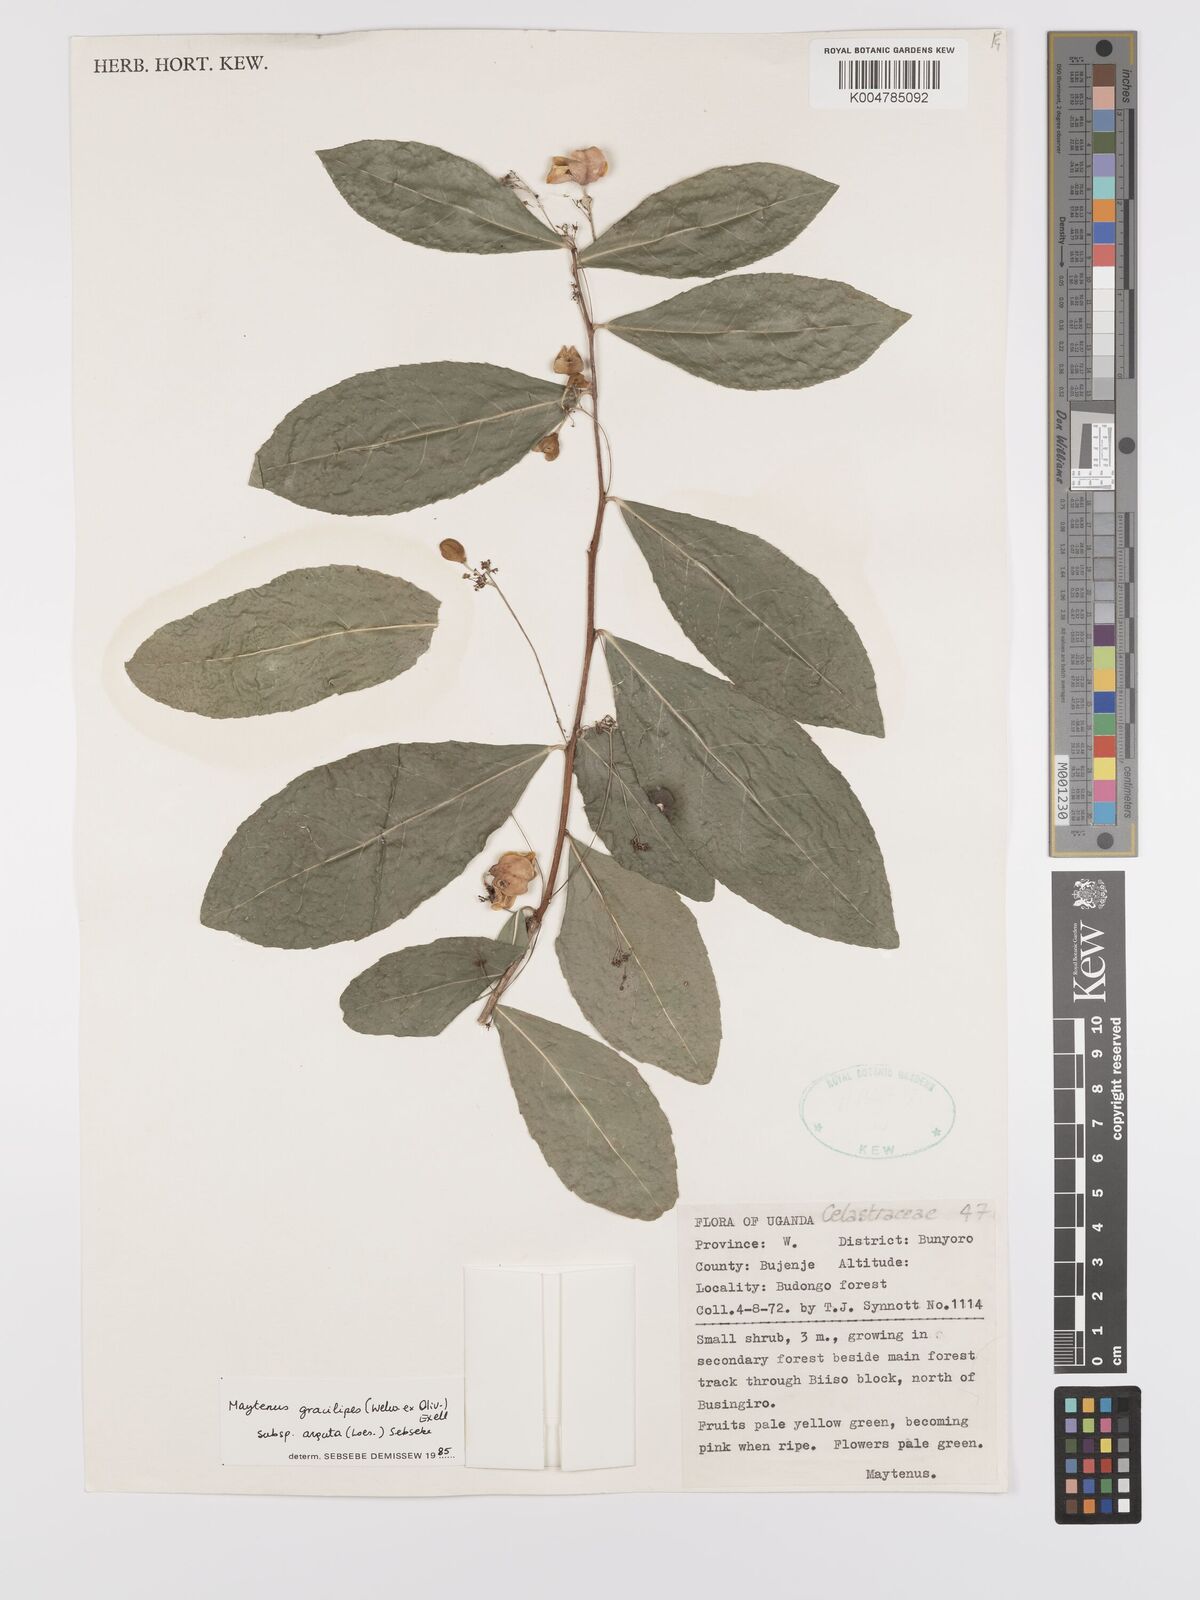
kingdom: Plantae
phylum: Tracheophyta
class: Magnoliopsida
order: Celastrales
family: Celastraceae
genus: Gymnosporia
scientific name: Gymnosporia gracilipes
